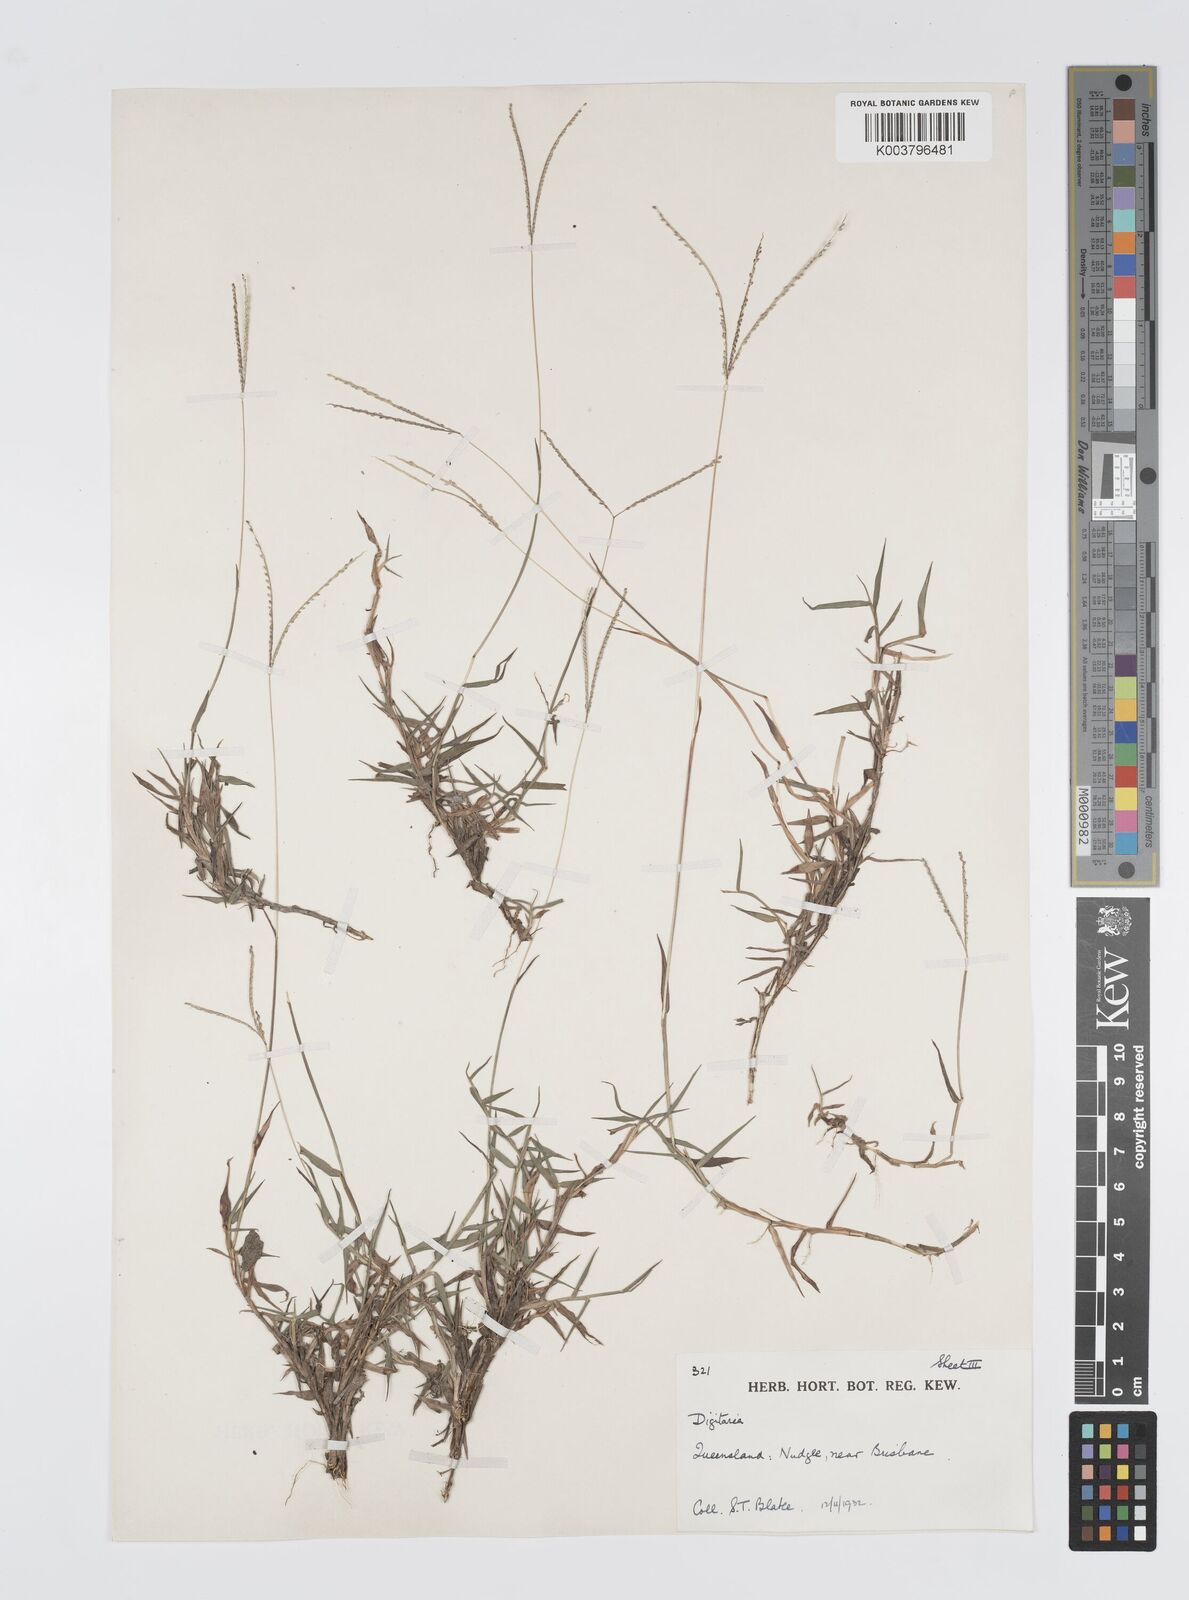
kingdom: Plantae
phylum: Tracheophyta
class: Liliopsida
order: Poales
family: Poaceae
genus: Digitaria
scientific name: Digitaria longiflora
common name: Wire crabgrass
